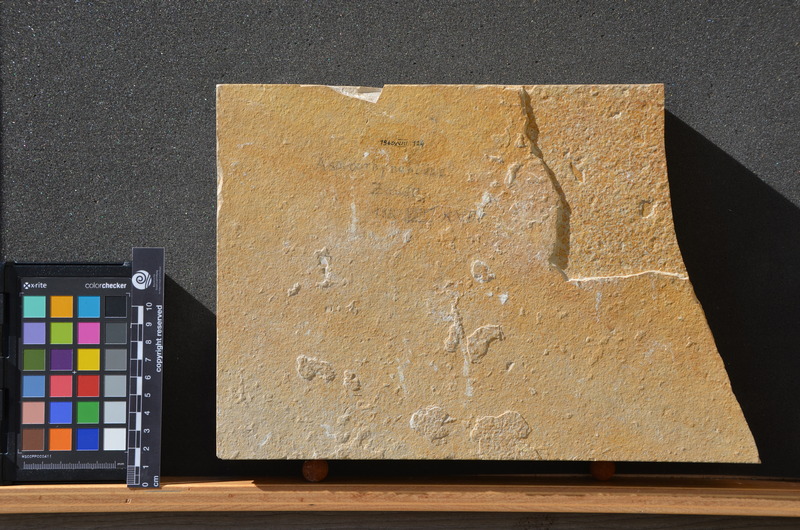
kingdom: Animalia
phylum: Chordata
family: Aspidorhynchidae
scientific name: Aspidorhynchidae
